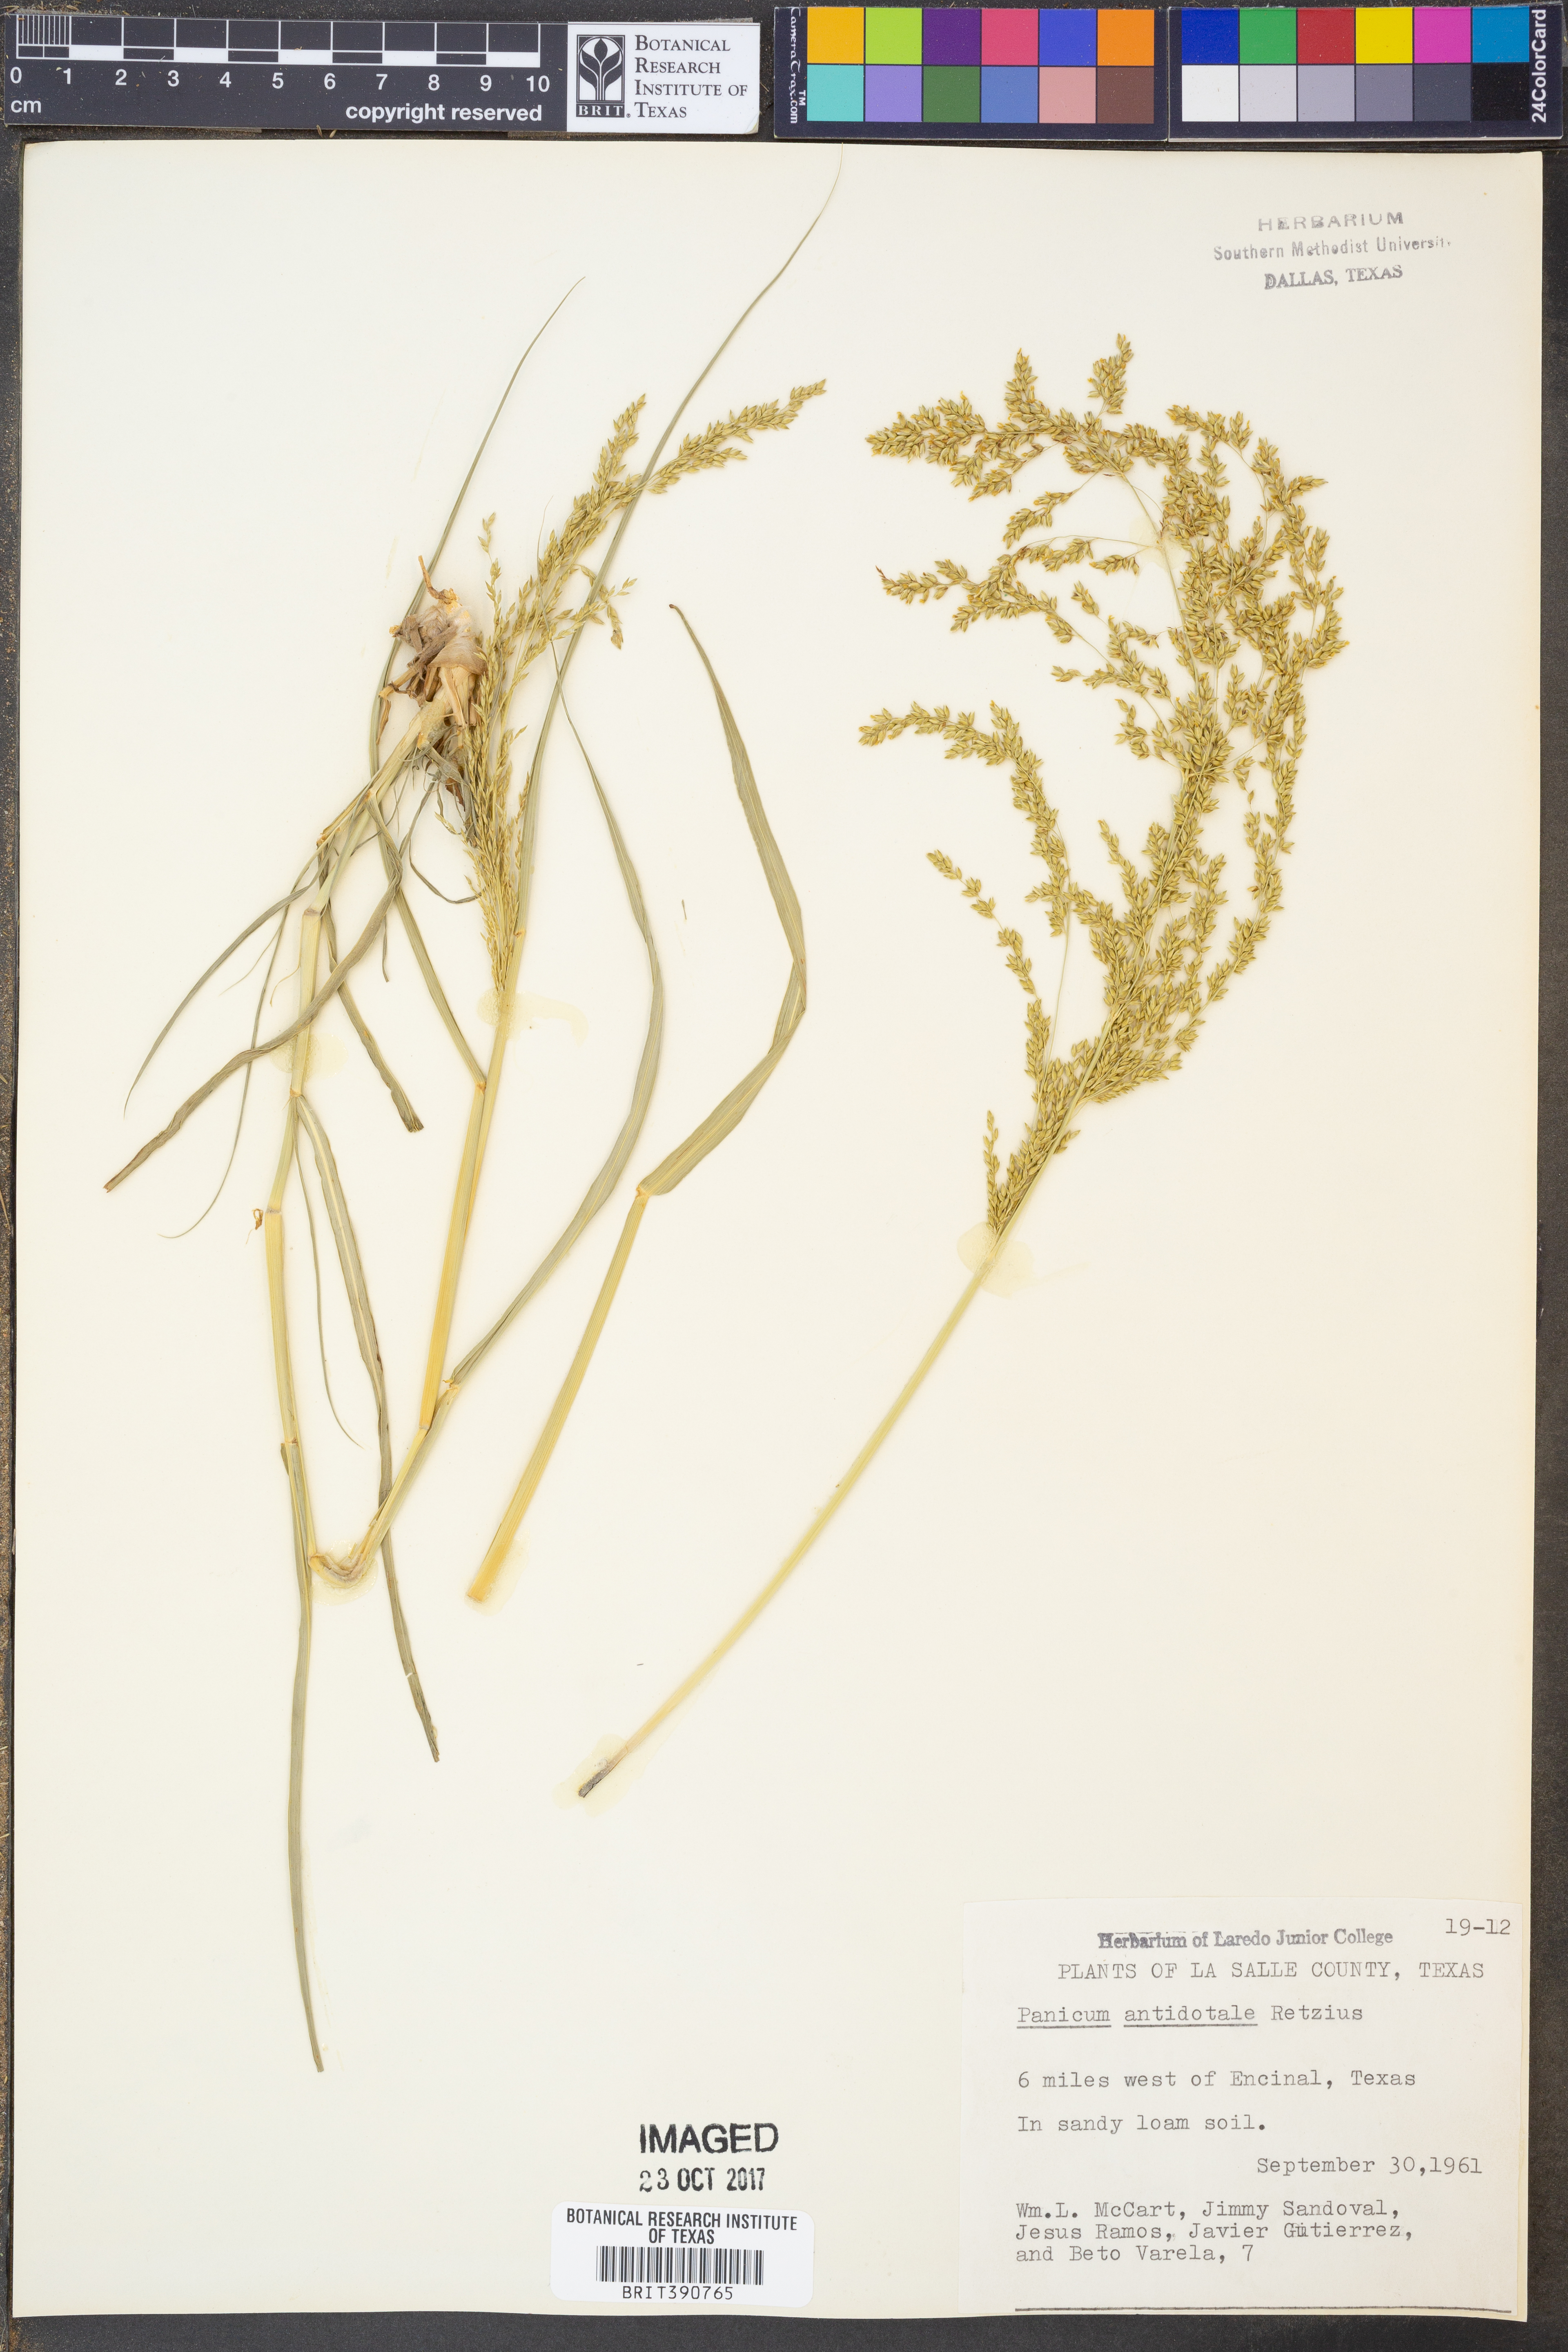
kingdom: Plantae
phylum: Tracheophyta
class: Liliopsida
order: Poales
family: Poaceae
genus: Panicum
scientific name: Panicum antidotale
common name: Blue panicum
